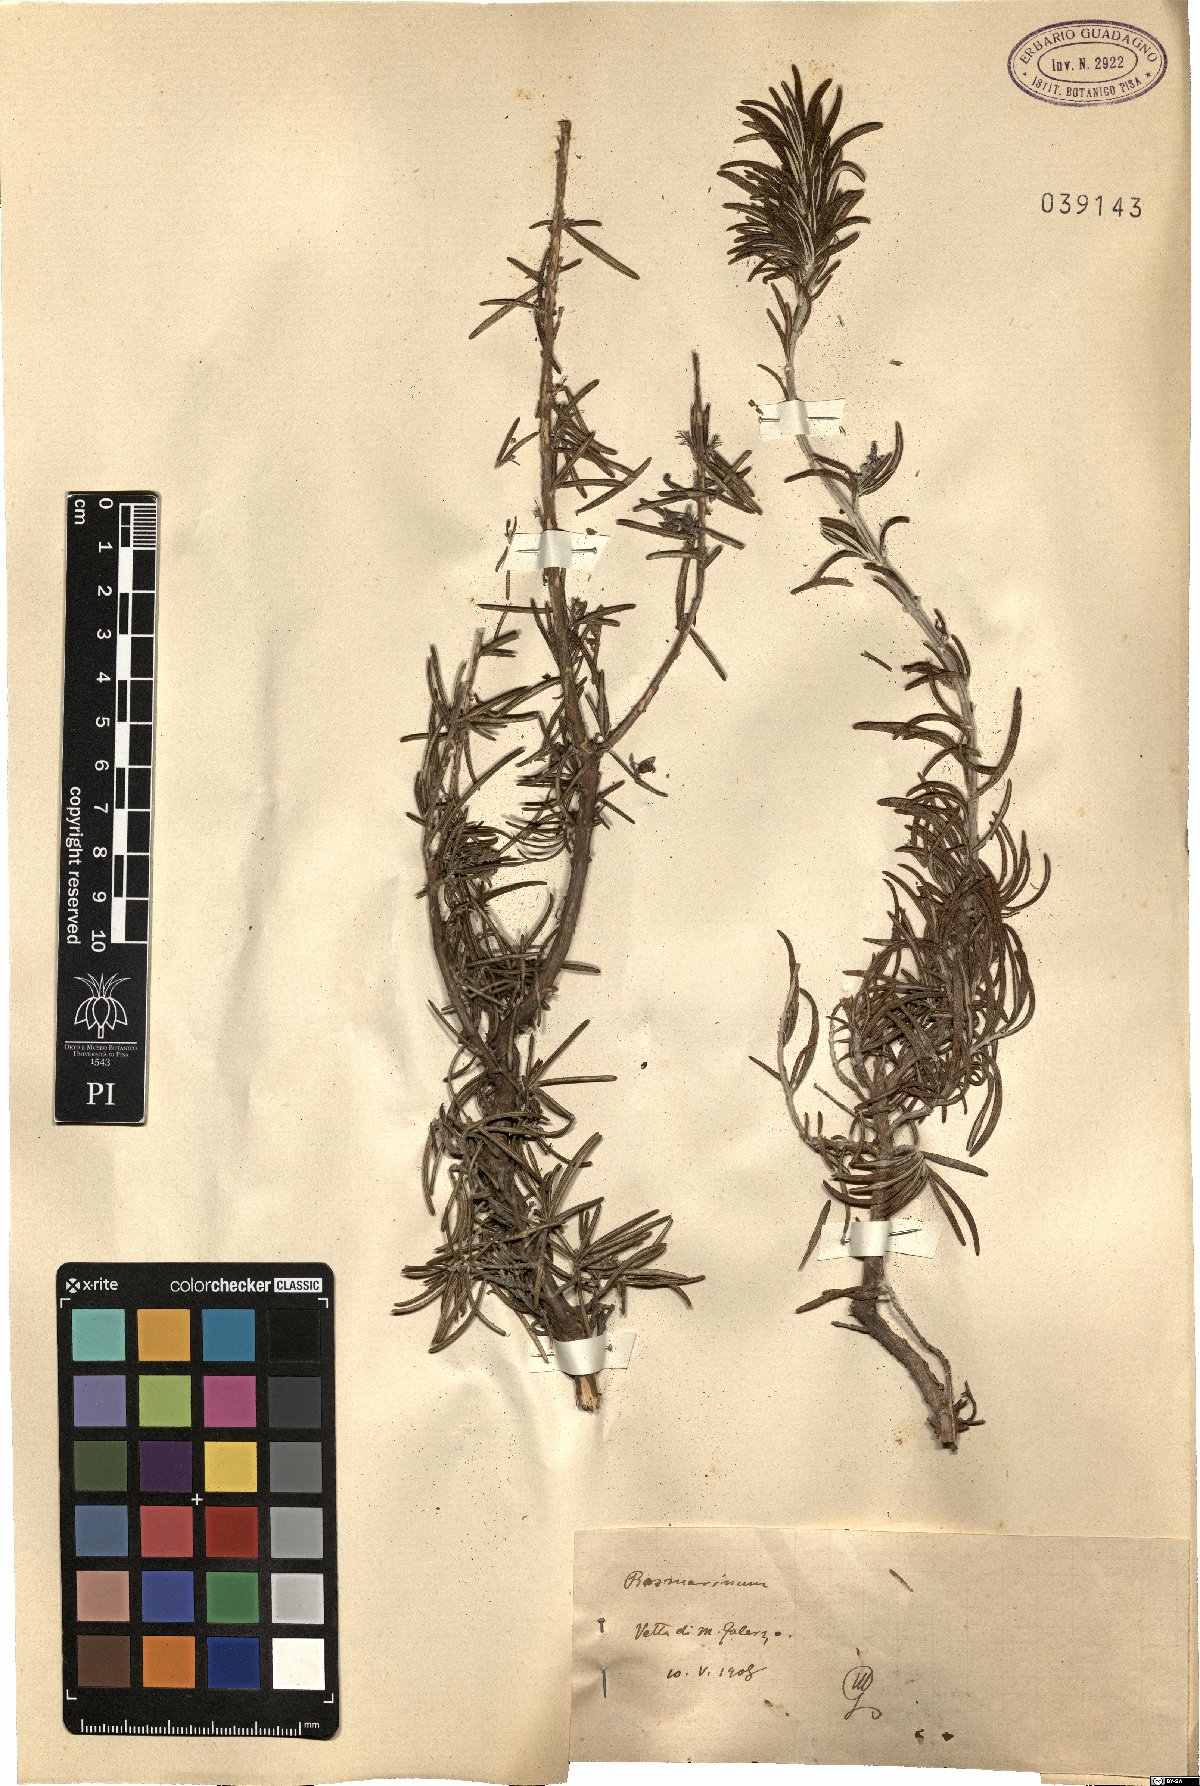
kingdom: Plantae
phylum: Tracheophyta
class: Magnoliopsida
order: Lamiales
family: Lamiaceae
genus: Salvia
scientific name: Salvia
